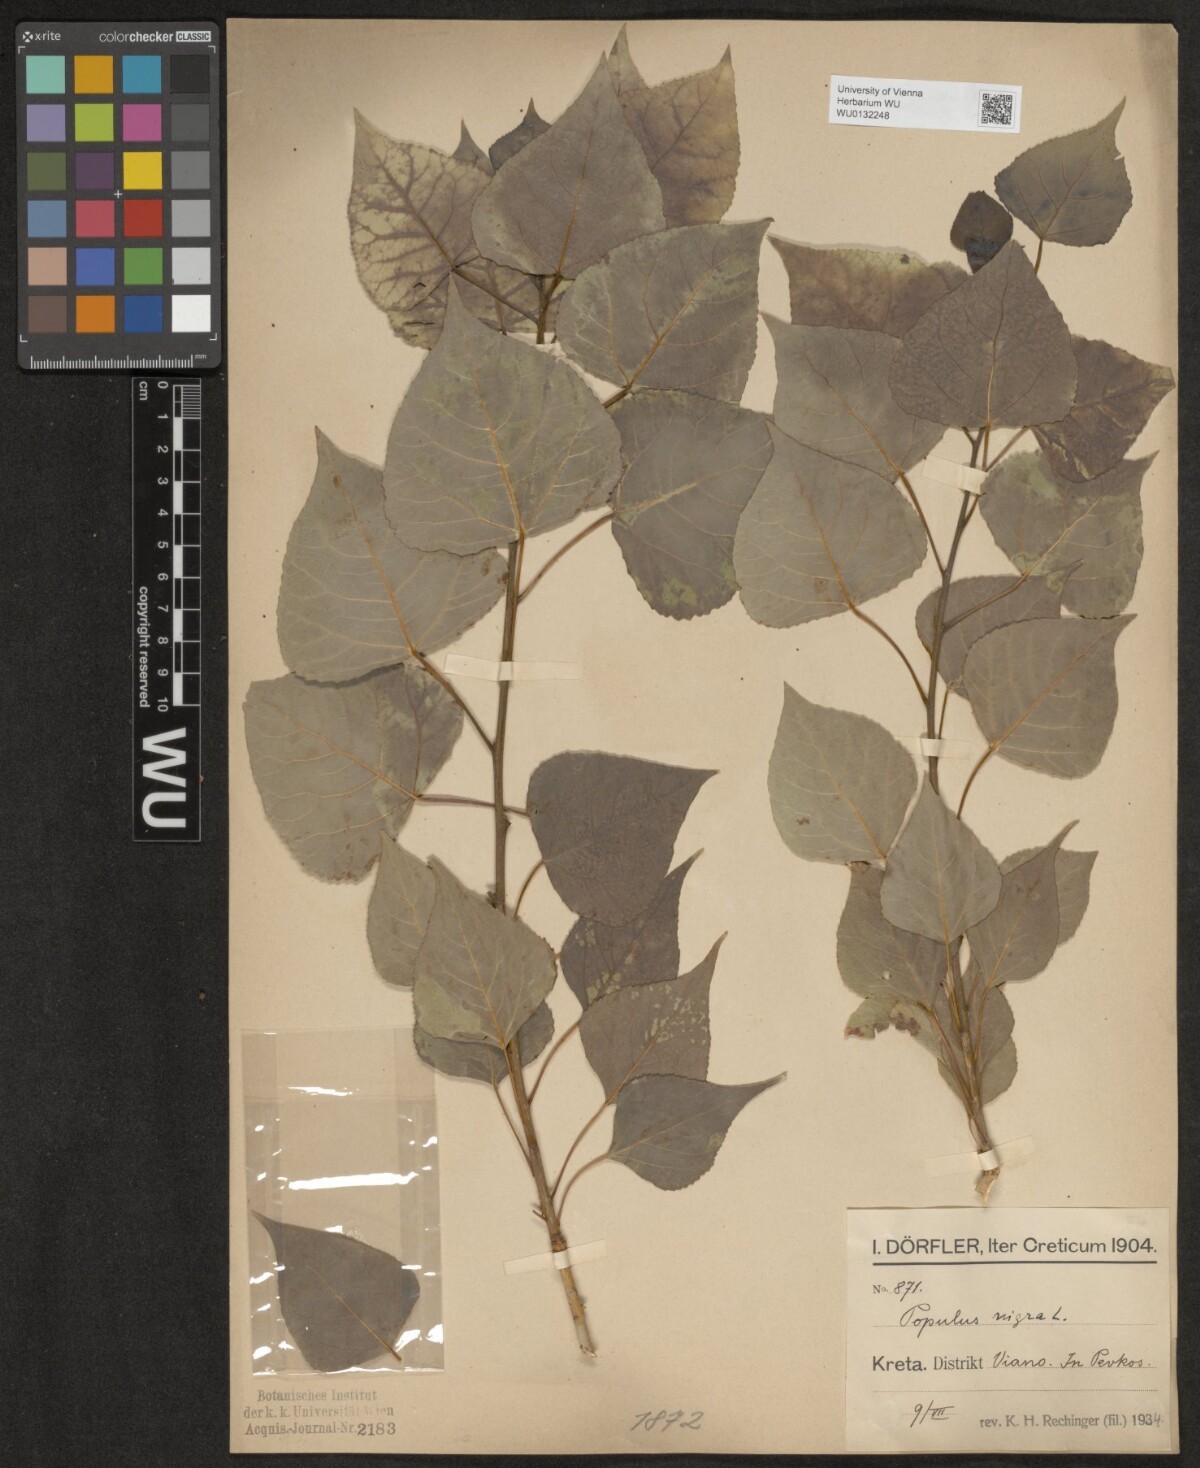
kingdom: Plantae
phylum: Tracheophyta
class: Magnoliopsida
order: Malpighiales
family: Salicaceae
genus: Populus
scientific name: Populus nigra
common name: Black poplar
